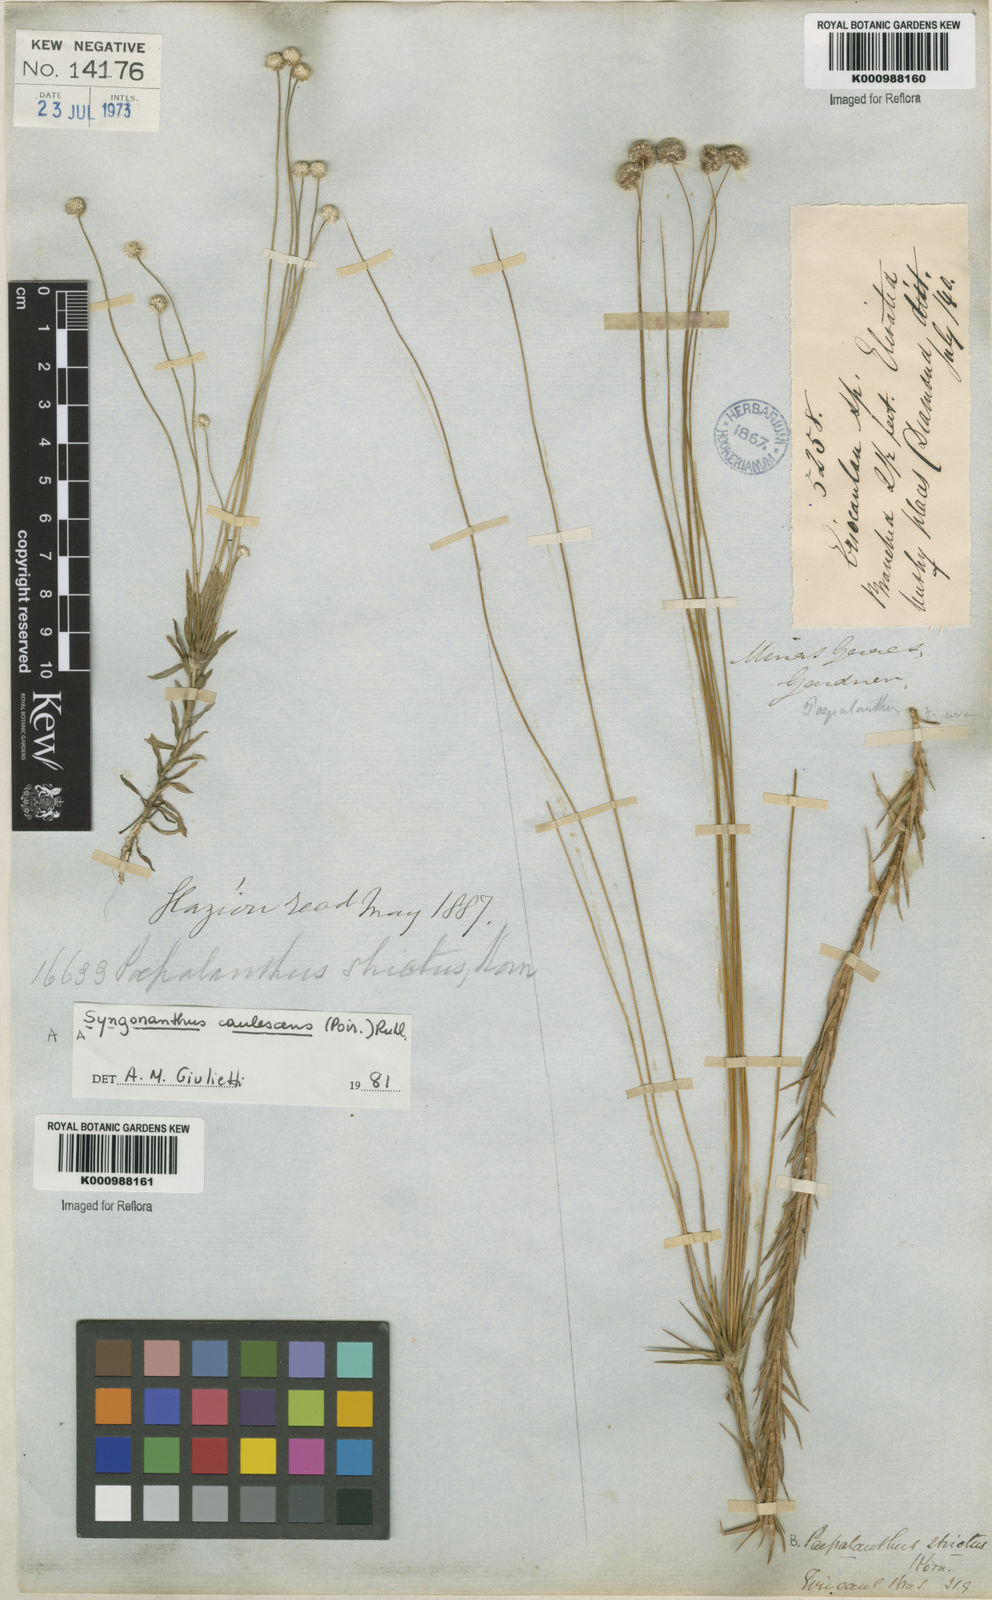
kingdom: Plantae
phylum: Tracheophyta
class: Liliopsida
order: Poales
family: Eriocaulaceae
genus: Paepalanthus
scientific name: Paepalanthus
